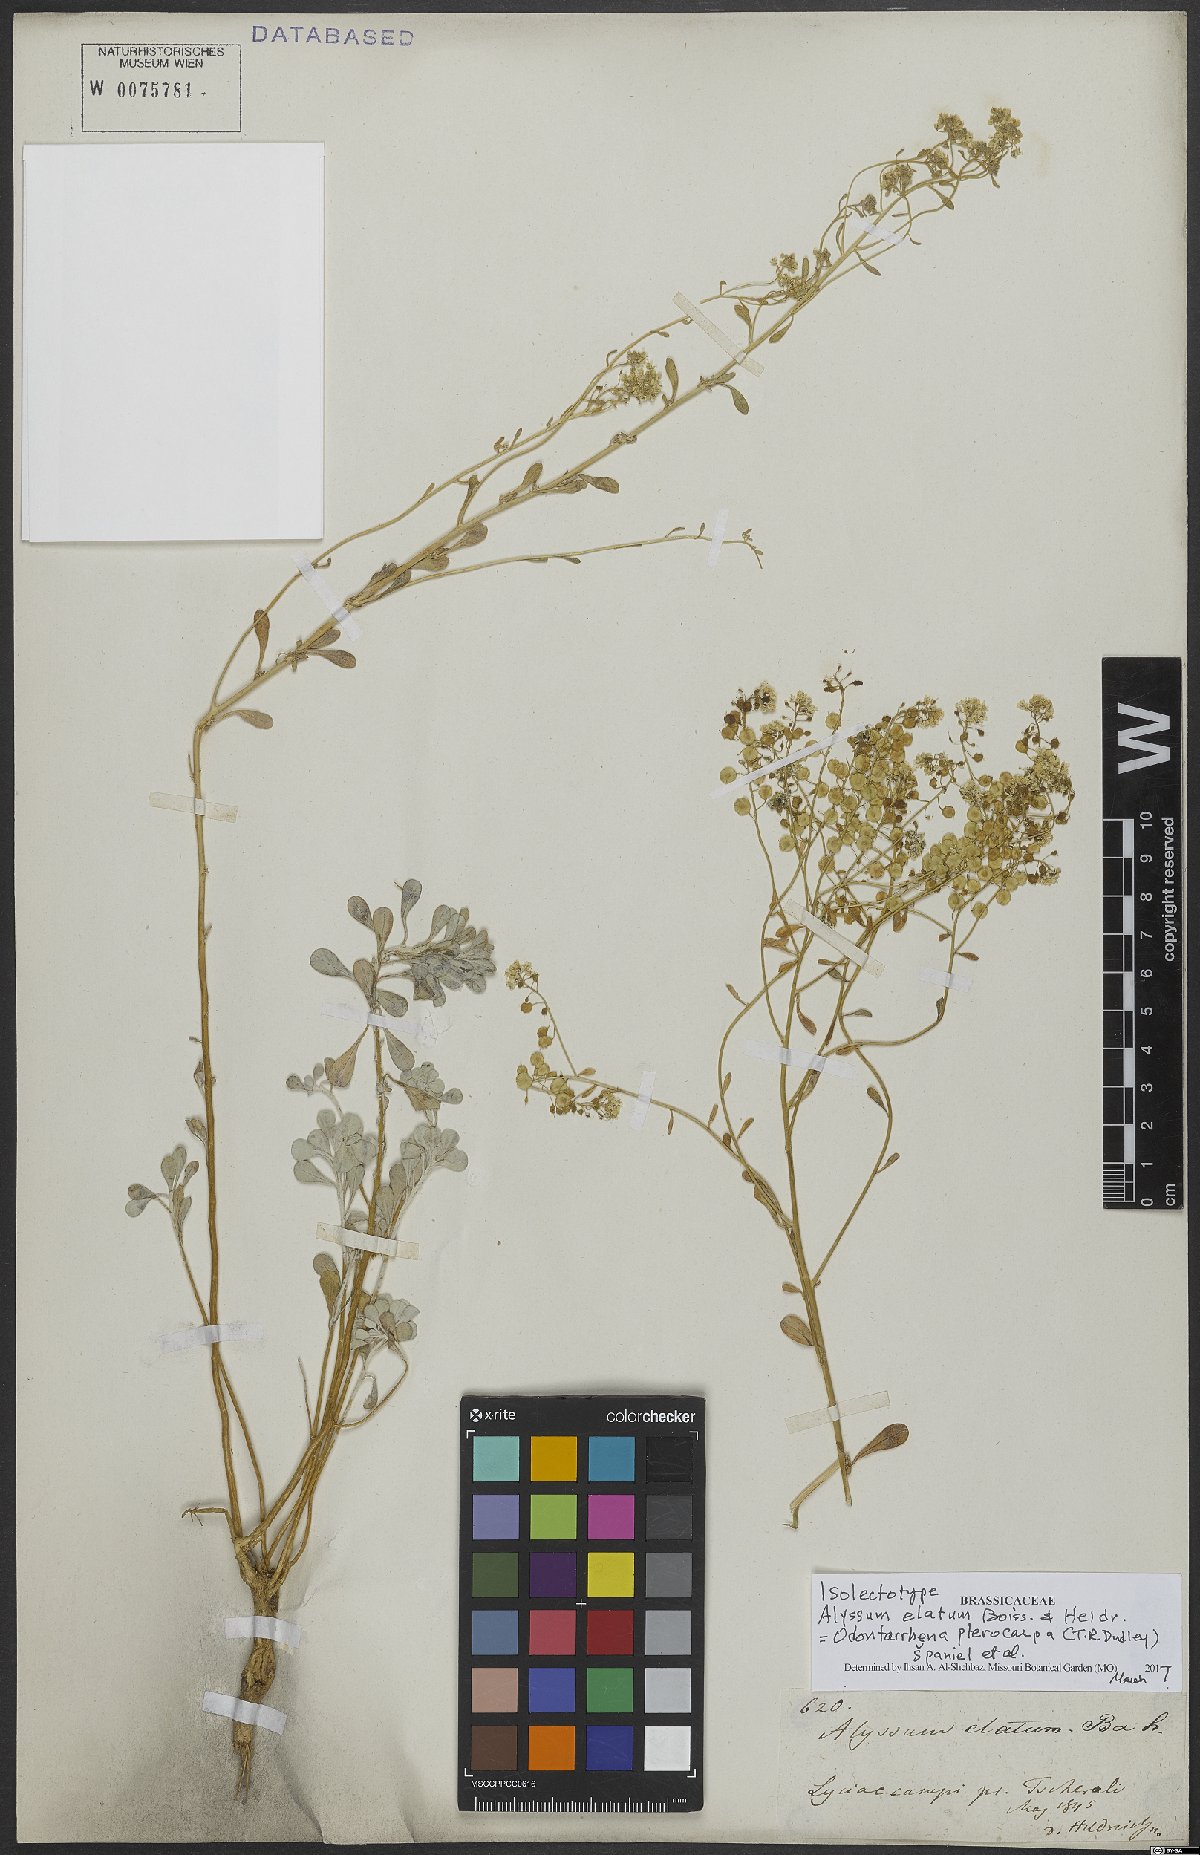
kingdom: Plantae
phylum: Tracheophyta
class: Magnoliopsida
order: Brassicales
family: Brassicaceae
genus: Odontarrhena
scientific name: Odontarrhena pterocarpa
